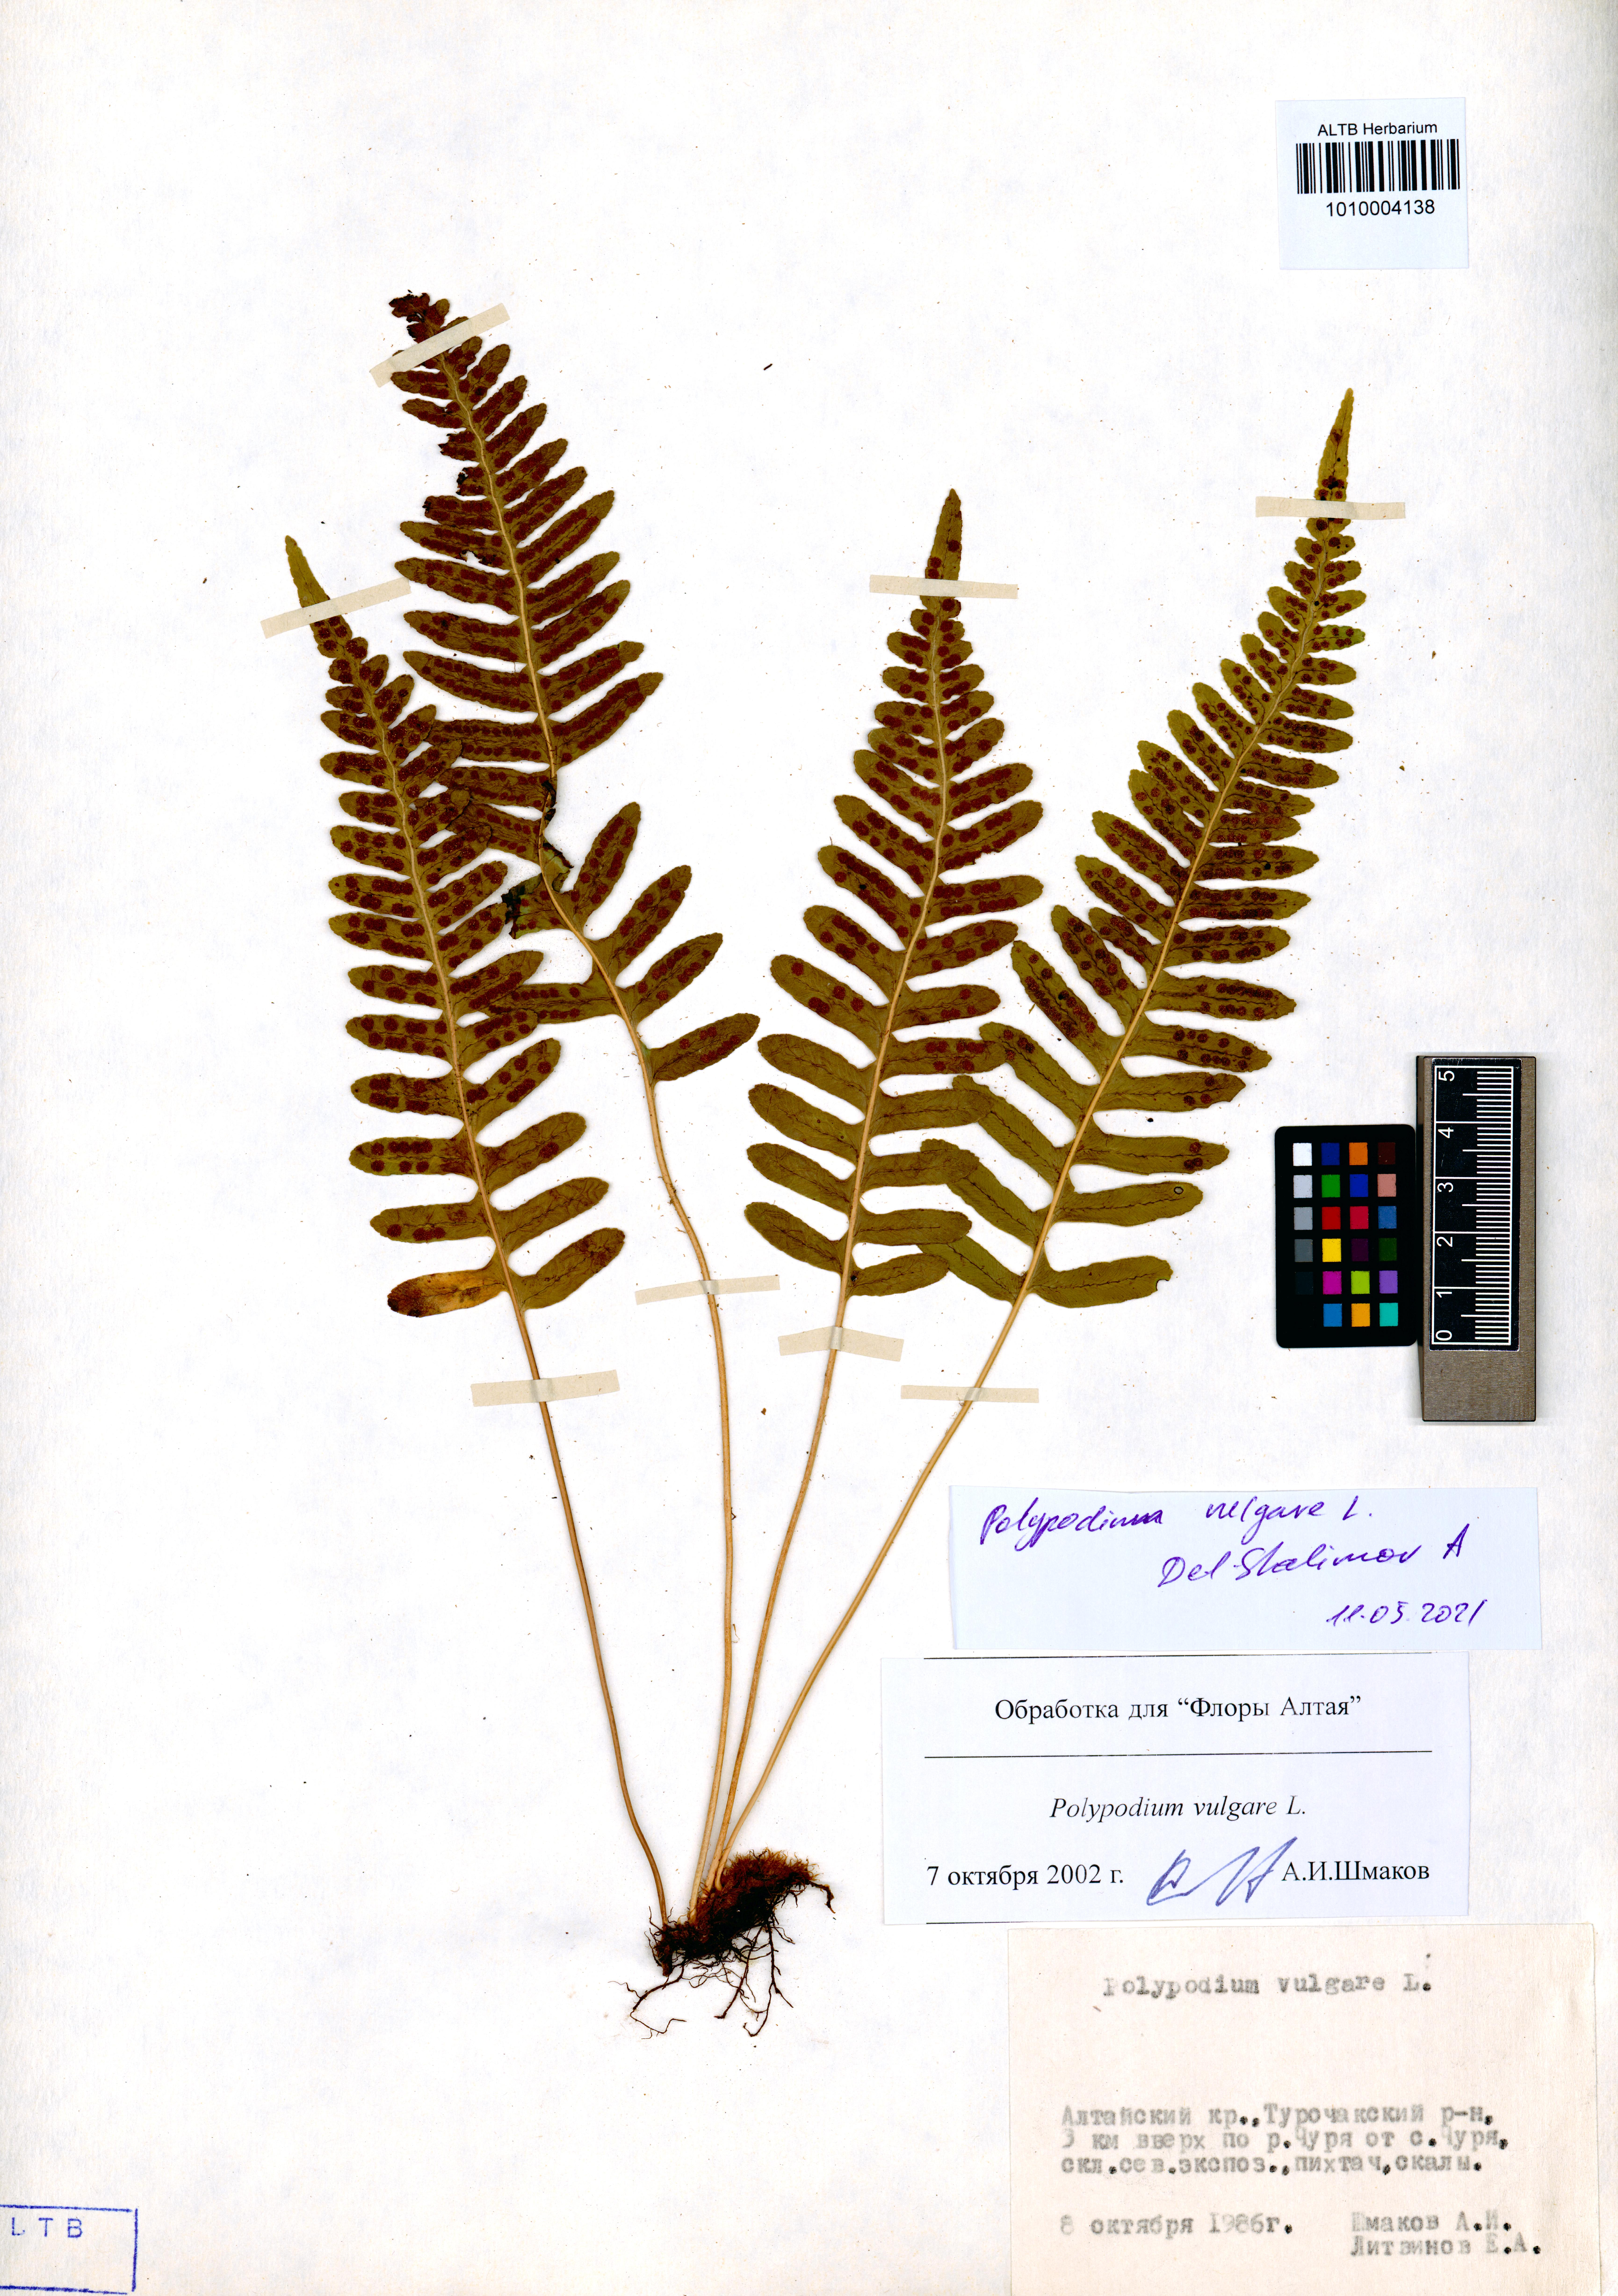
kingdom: Plantae
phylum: Tracheophyta
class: Polypodiopsida
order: Polypodiales
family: Polypodiaceae
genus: Polypodium
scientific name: Polypodium vulgare
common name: Common polypody
